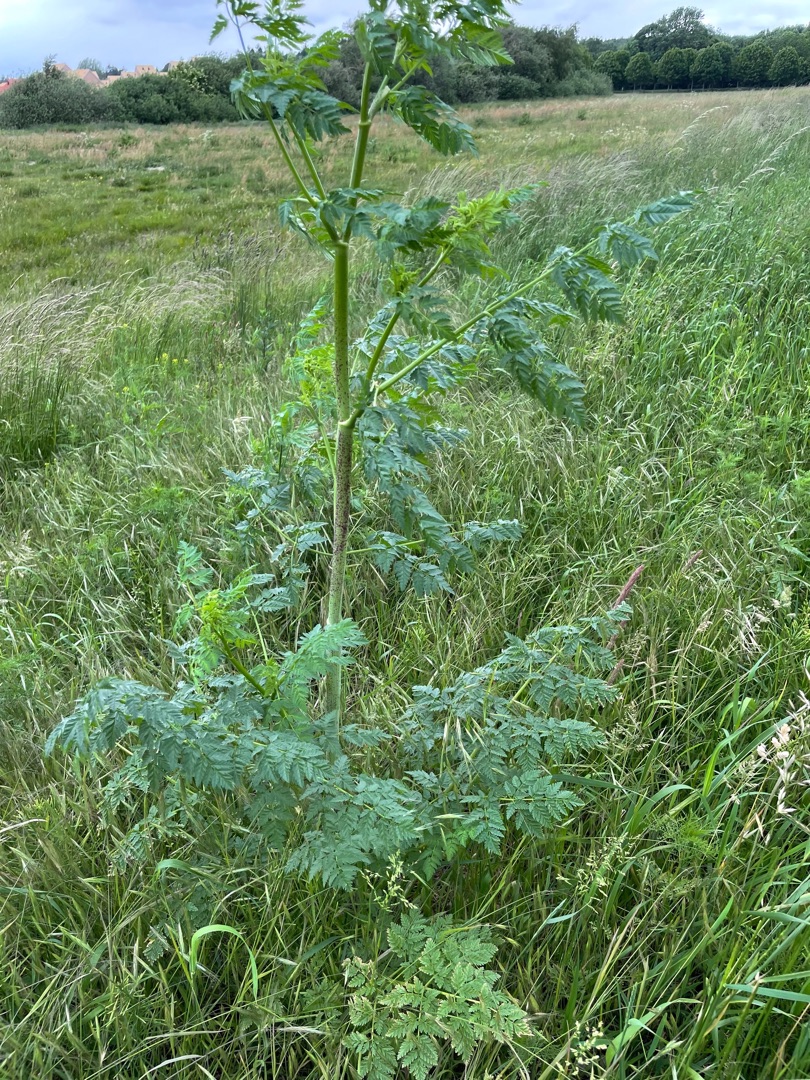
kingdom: Plantae
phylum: Tracheophyta
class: Magnoliopsida
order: Apiales
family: Apiaceae
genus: Conium
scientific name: Conium maculatum
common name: Skarntyde
